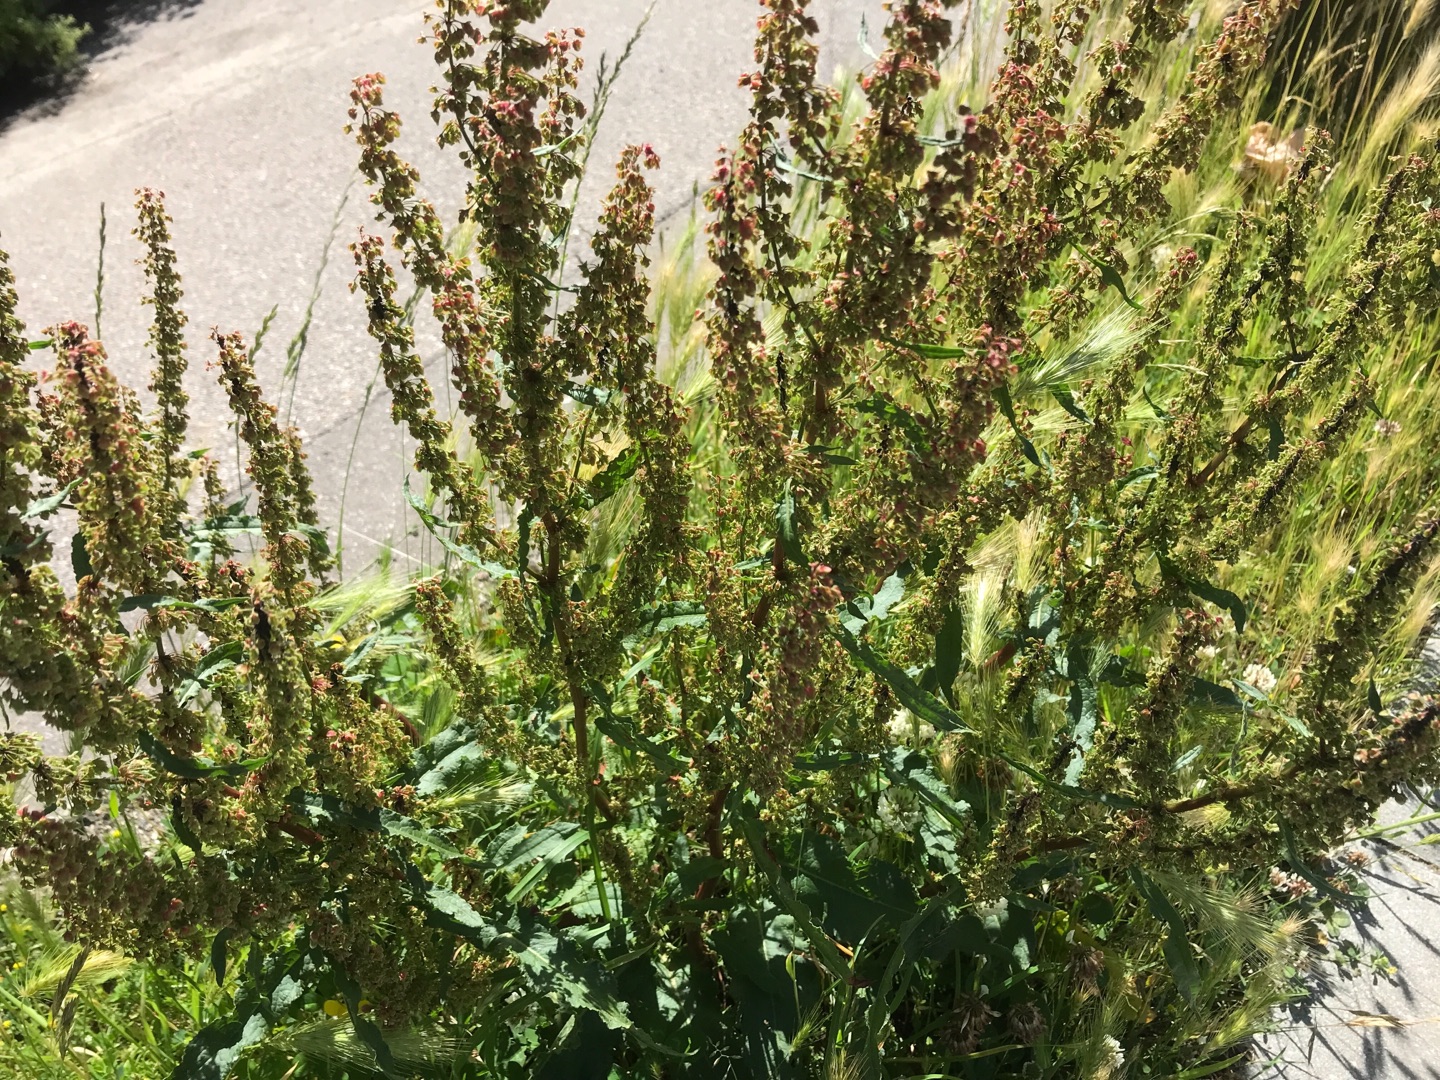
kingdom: Plantae
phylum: Tracheophyta
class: Magnoliopsida
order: Caryophyllales
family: Polygonaceae
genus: Rumex
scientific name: Rumex crispus
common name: Kruset skræppe
